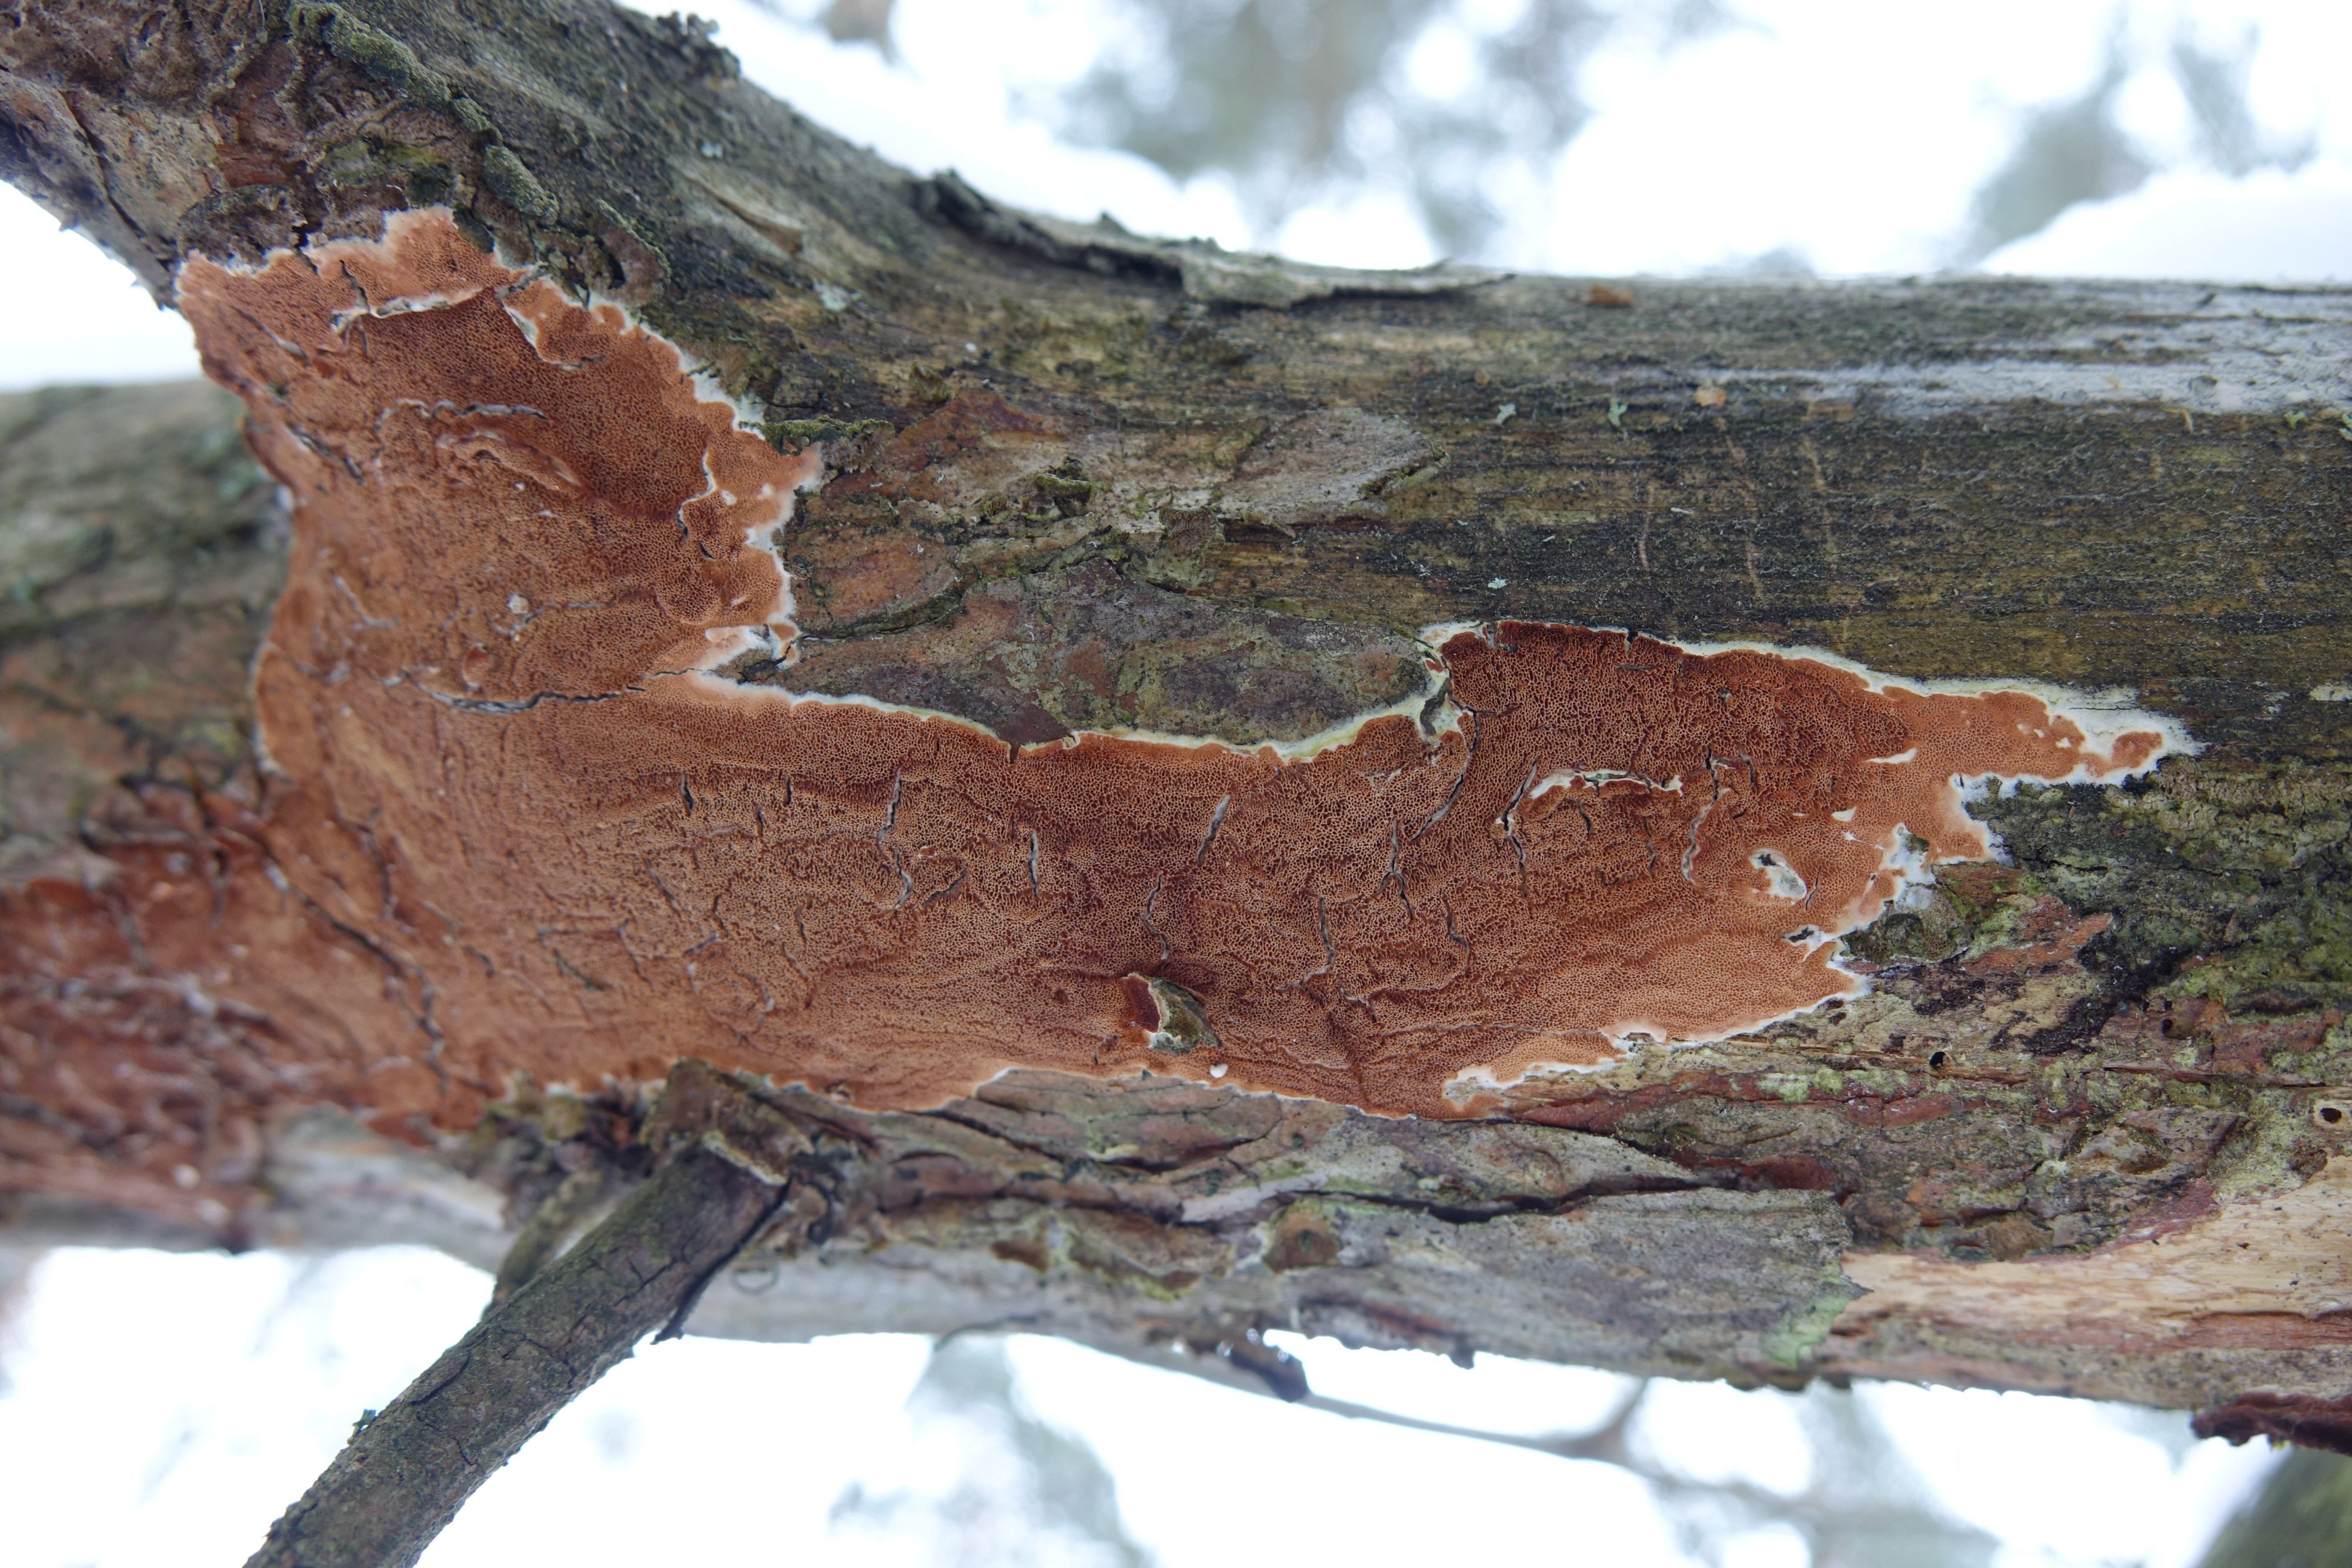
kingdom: Fungi
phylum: Basidiomycota
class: Agaricomycetes
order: Polyporales
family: Irpicaceae
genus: Meruliopsis
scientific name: Meruliopsis taxicola
